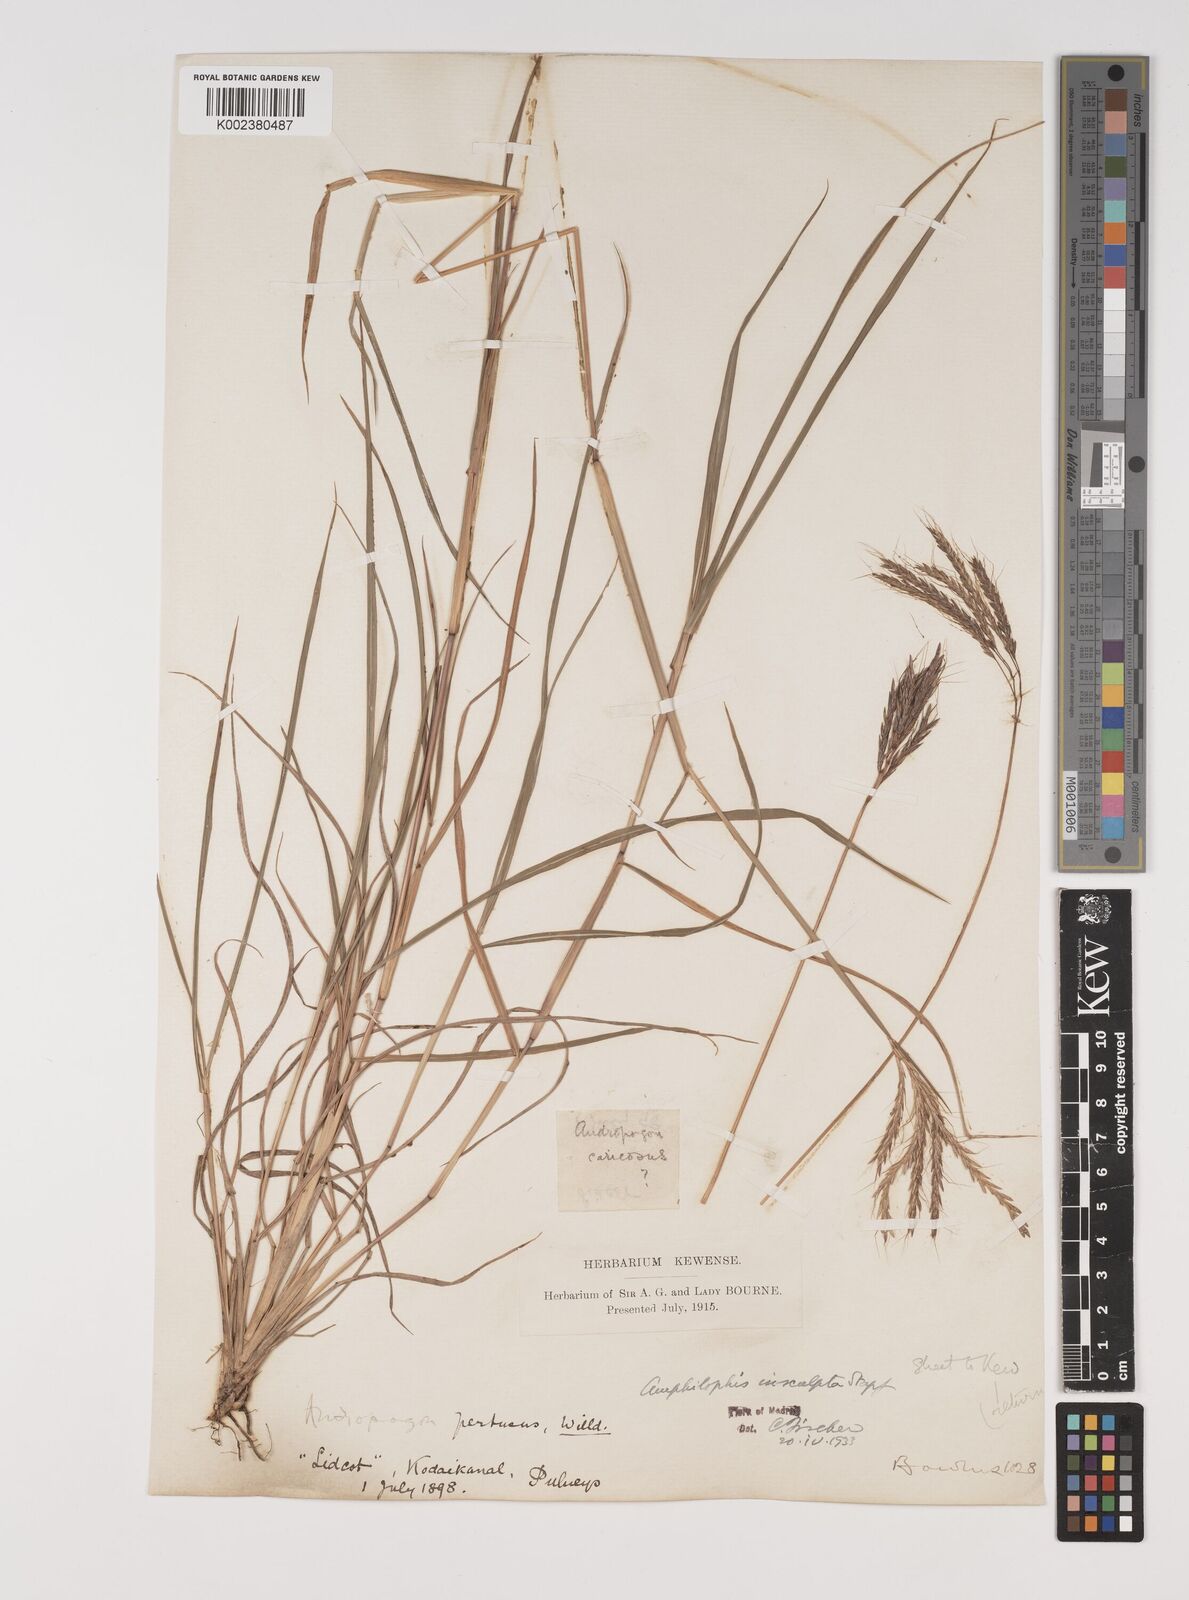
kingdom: Plantae
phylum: Tracheophyta
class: Liliopsida
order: Poales
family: Poaceae
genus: Bothriochloa
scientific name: Bothriochloa insculpta
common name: Creeping-bluegrass
